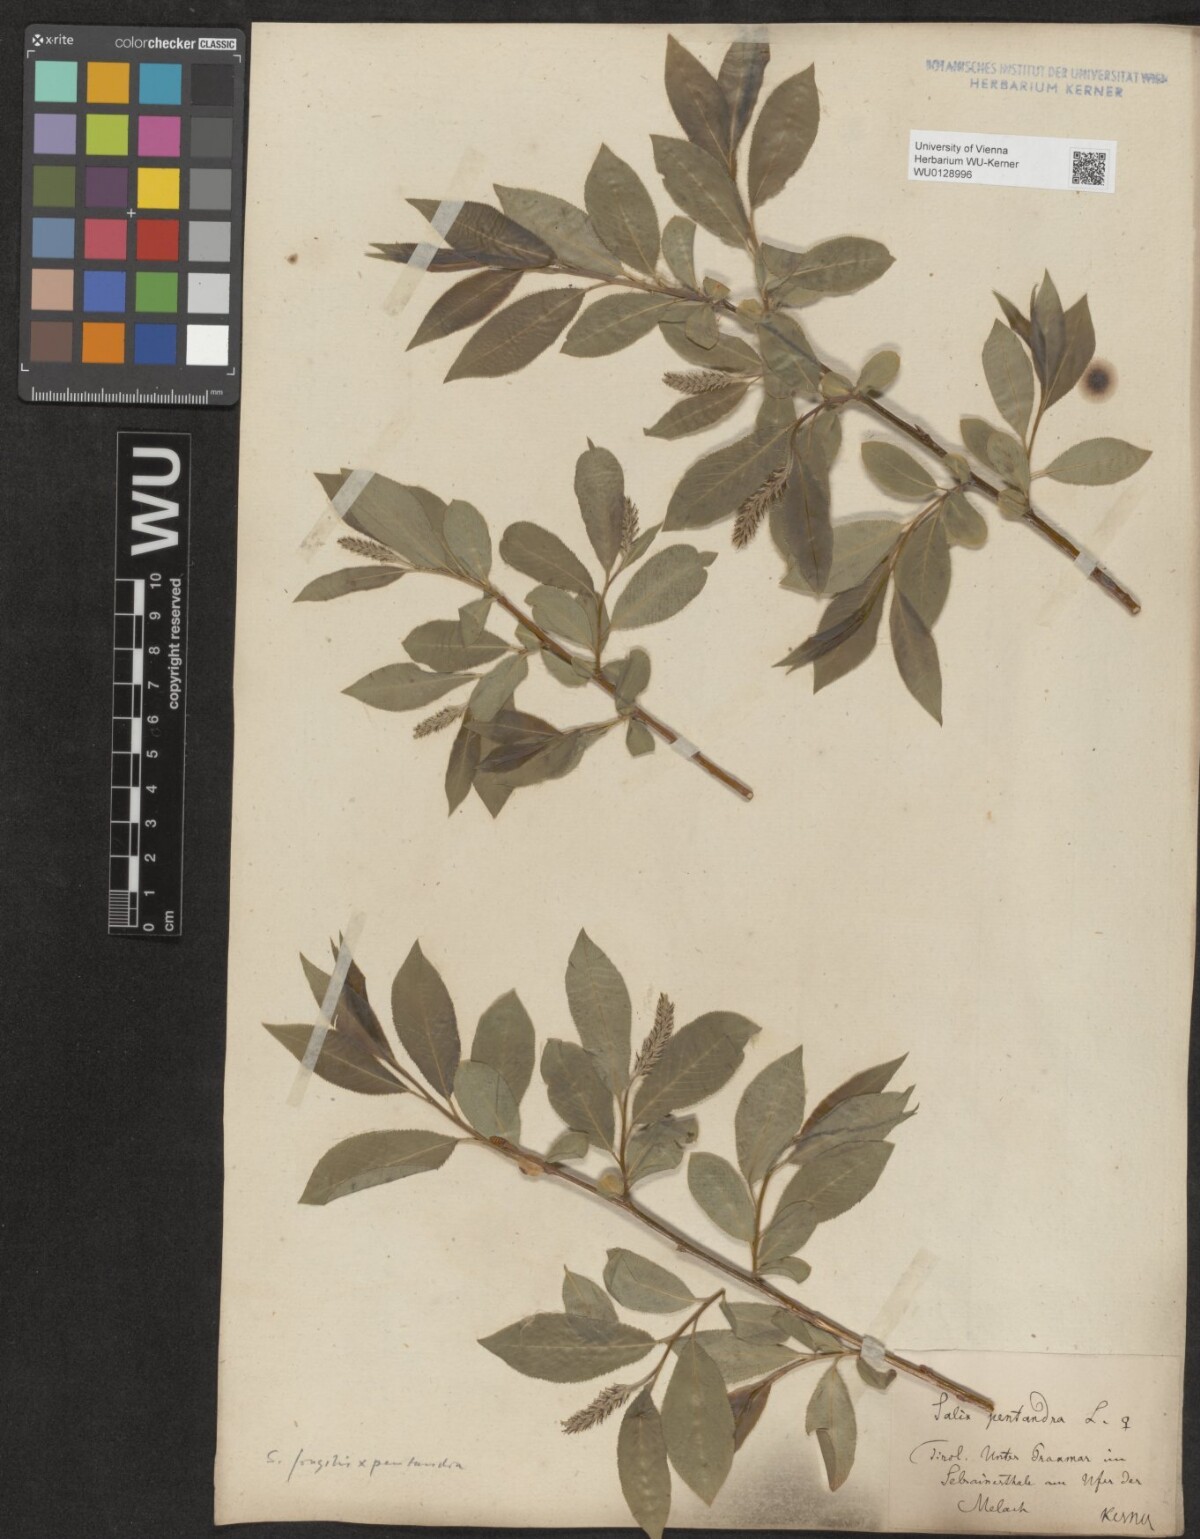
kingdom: Plantae
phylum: Tracheophyta
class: Magnoliopsida
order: Malpighiales
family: Salicaceae
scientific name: Salicaceae
